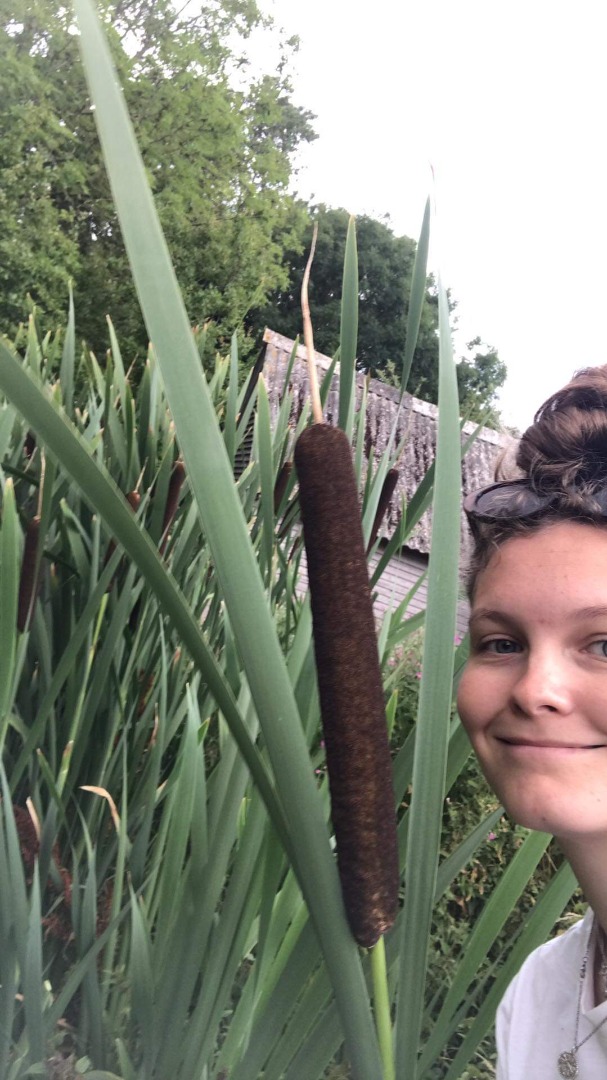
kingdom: Plantae
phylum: Tracheophyta
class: Liliopsida
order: Poales
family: Typhaceae
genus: Typha
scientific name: Typha latifolia
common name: Bredbladet dunhammer
